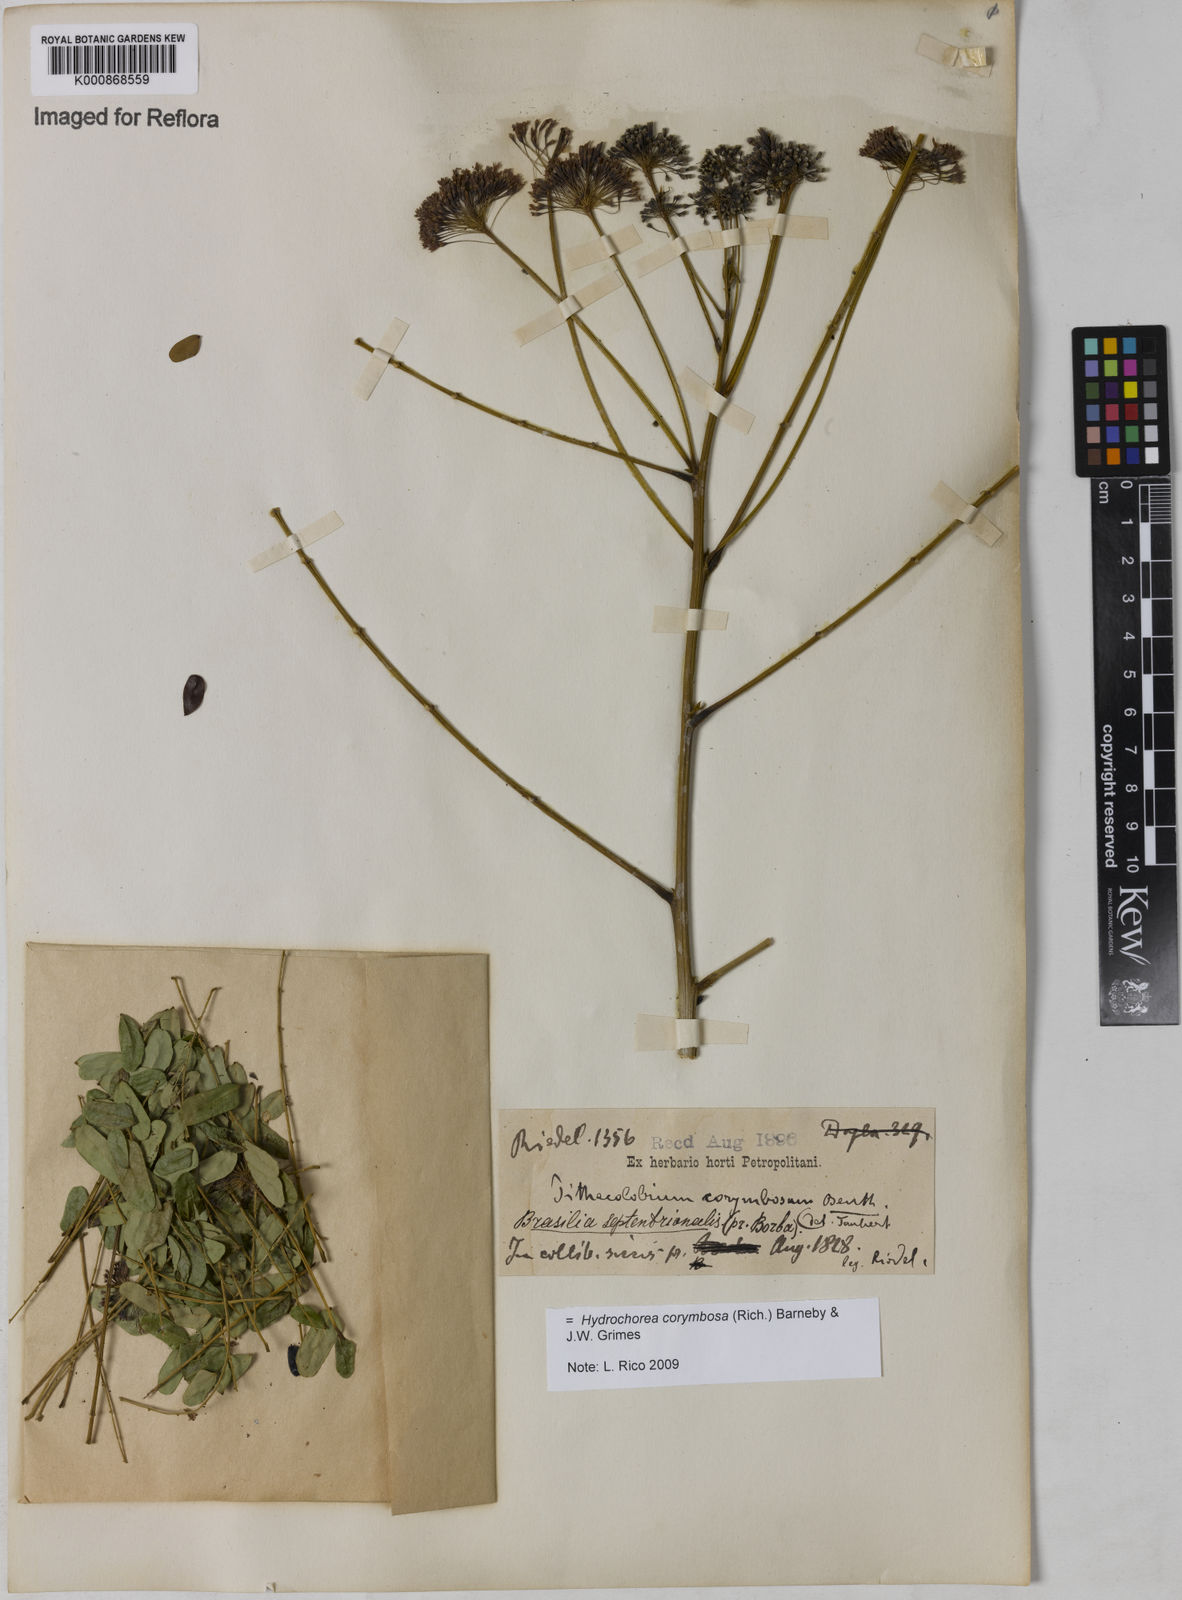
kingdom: Plantae
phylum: Tracheophyta
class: Magnoliopsida
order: Fabales
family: Fabaceae
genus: Hydrochorea
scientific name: Hydrochorea corymbosa
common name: Swamp manariballi
